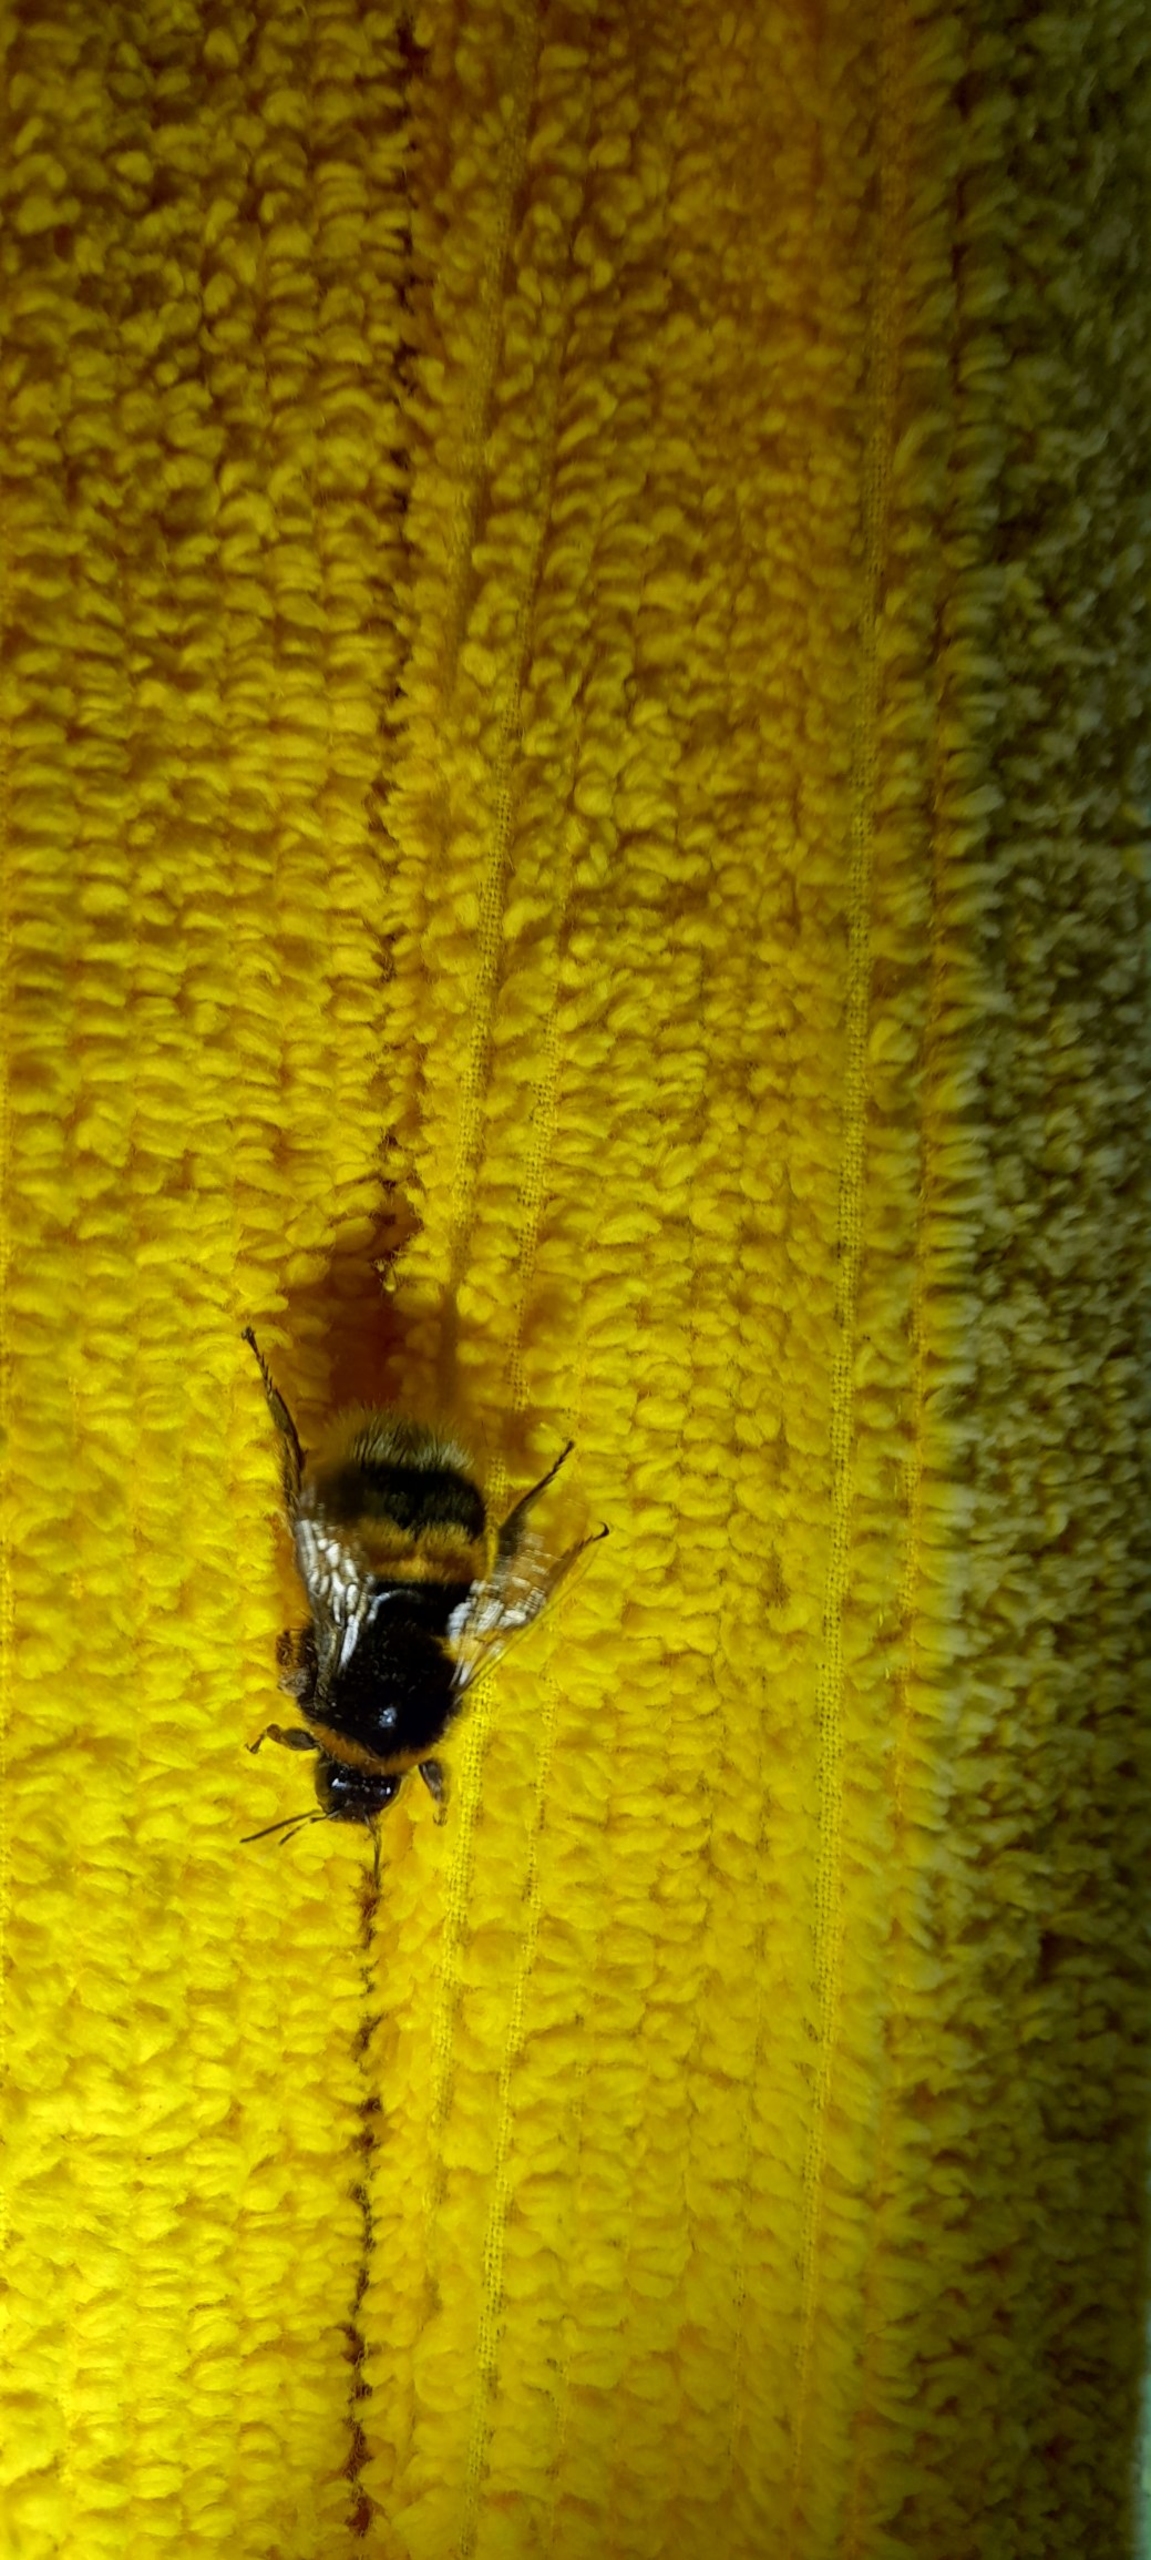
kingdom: Animalia
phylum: Arthropoda
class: Insecta
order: Hymenoptera
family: Apidae
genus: Bombus
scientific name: Bombus terrestris
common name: Mørk jordhumle
